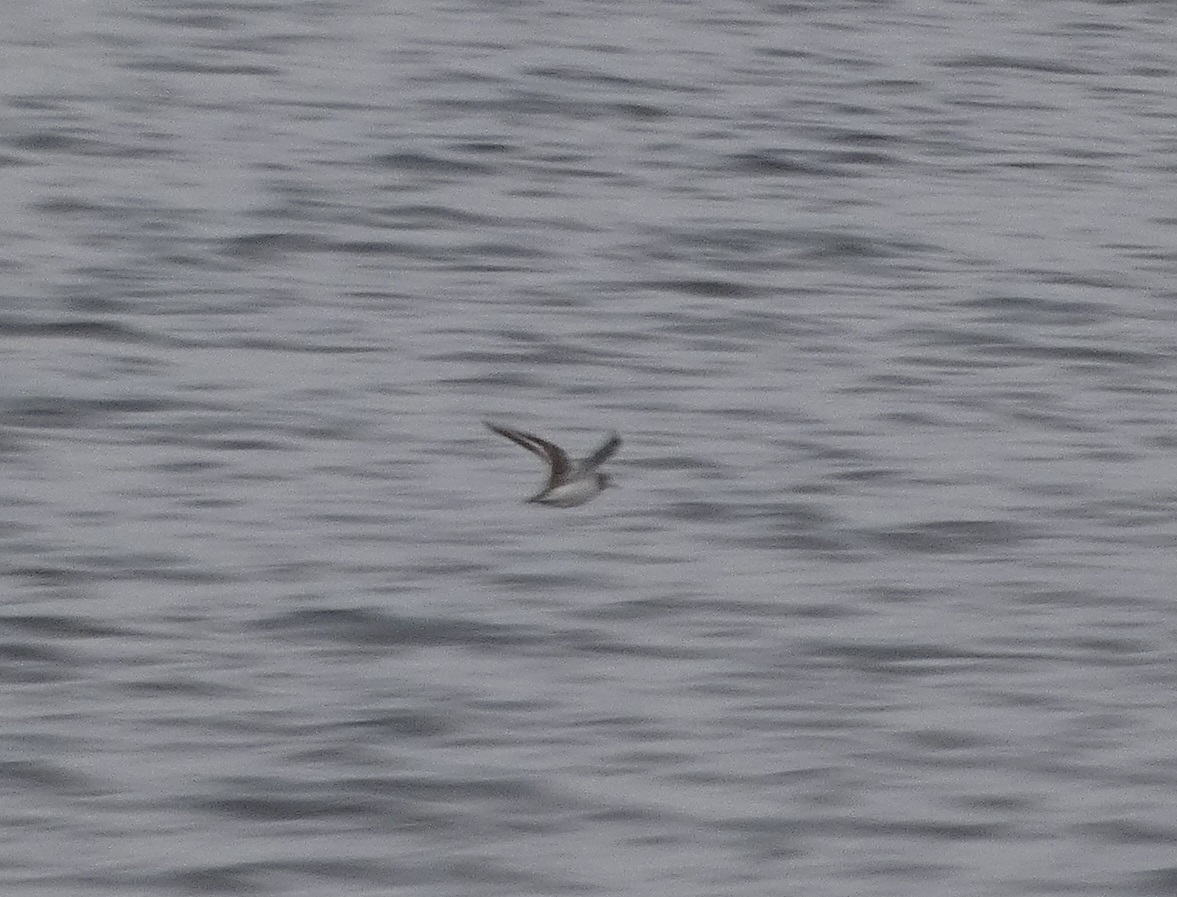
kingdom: Animalia
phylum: Chordata
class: Aves
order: Charadriiformes
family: Scolopacidae
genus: Actitis
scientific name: Actitis hypoleucos
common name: Mudderklire
